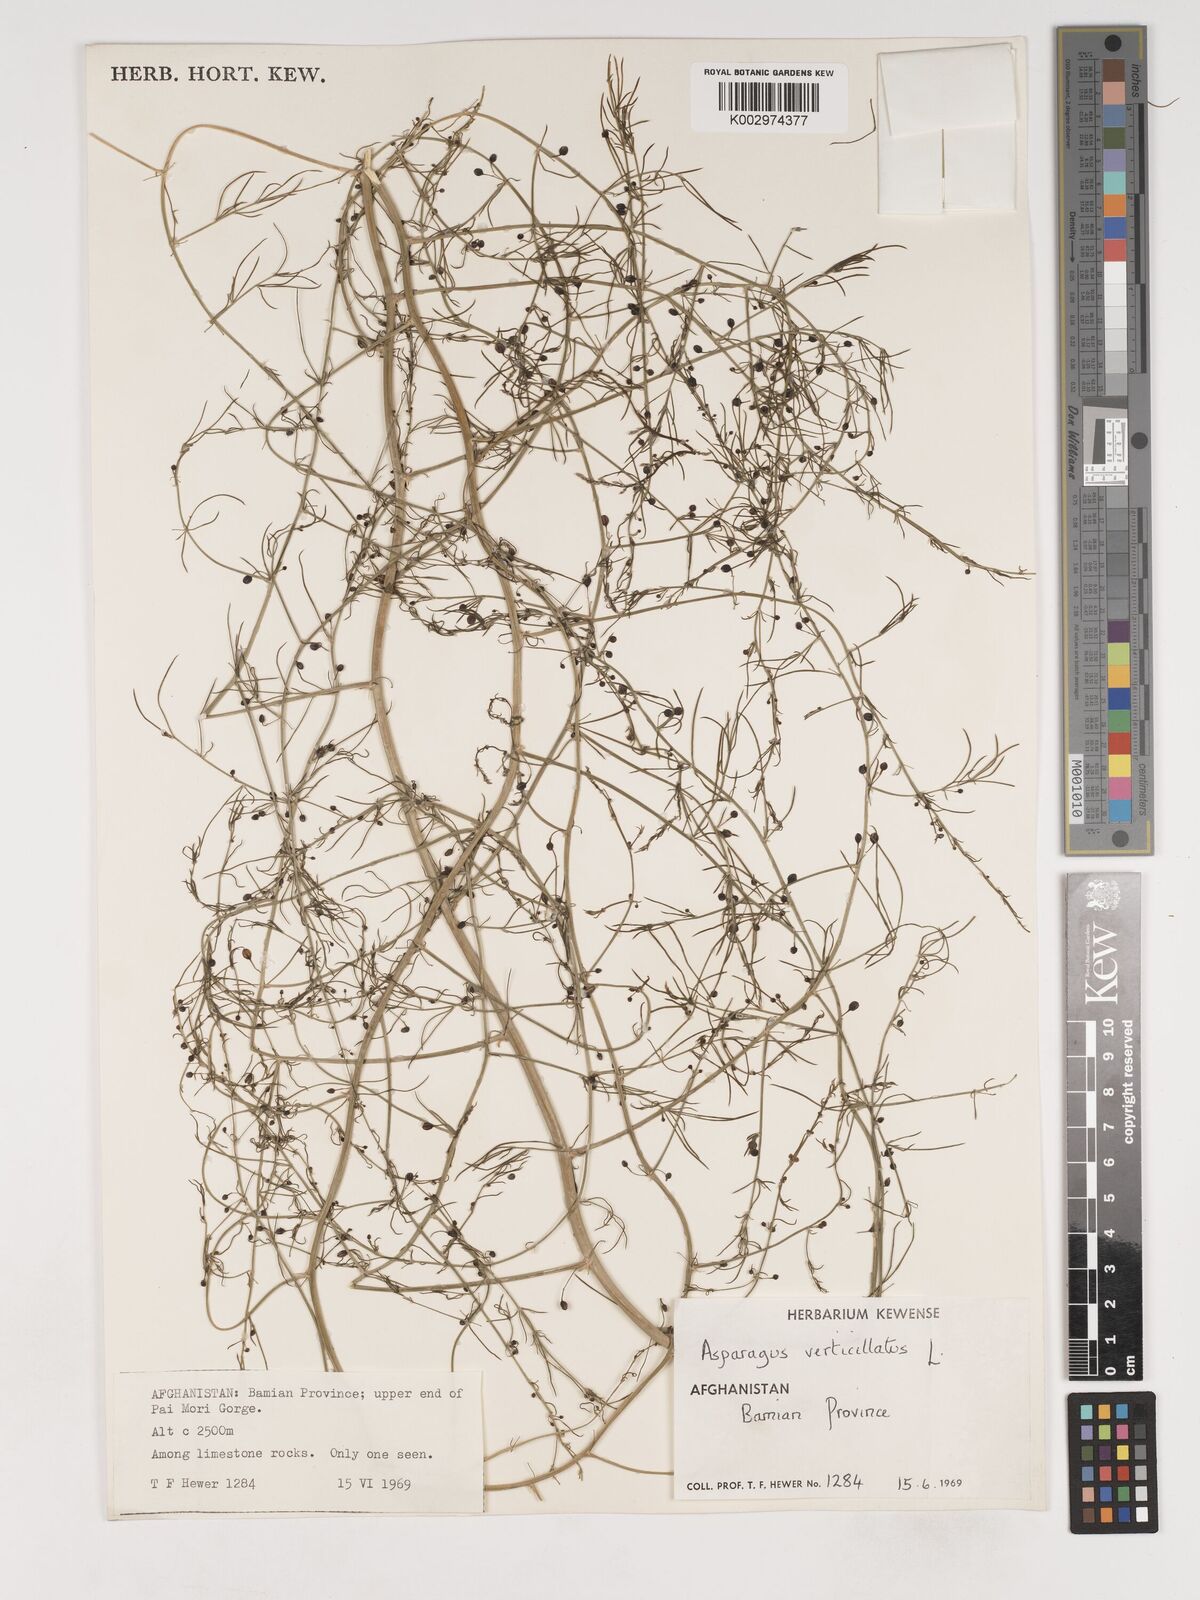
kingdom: Plantae
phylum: Tracheophyta
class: Liliopsida
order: Asparagales
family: Asparagaceae
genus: Asparagus
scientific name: Asparagus verticillatus
